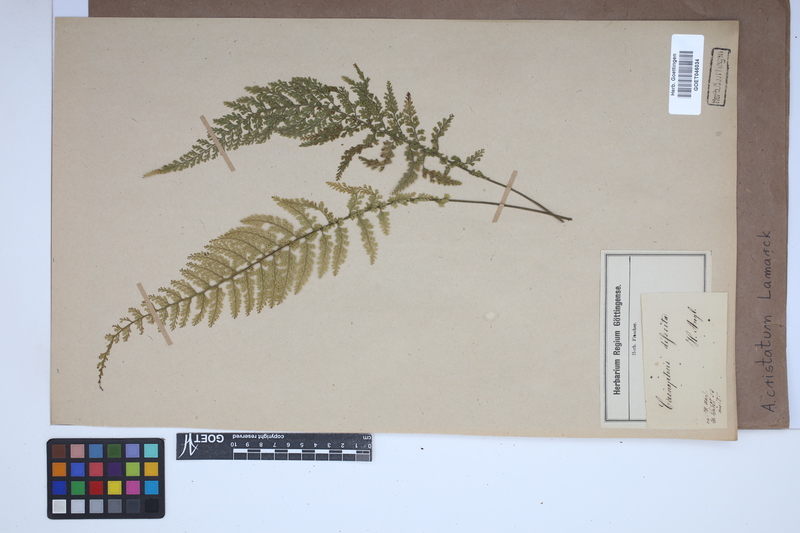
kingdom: Plantae
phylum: Tracheophyta
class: Polypodiopsida
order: Polypodiales
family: Aspleniaceae
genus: Asplenium
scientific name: Asplenium cristatum
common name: Parsley spleenwort
